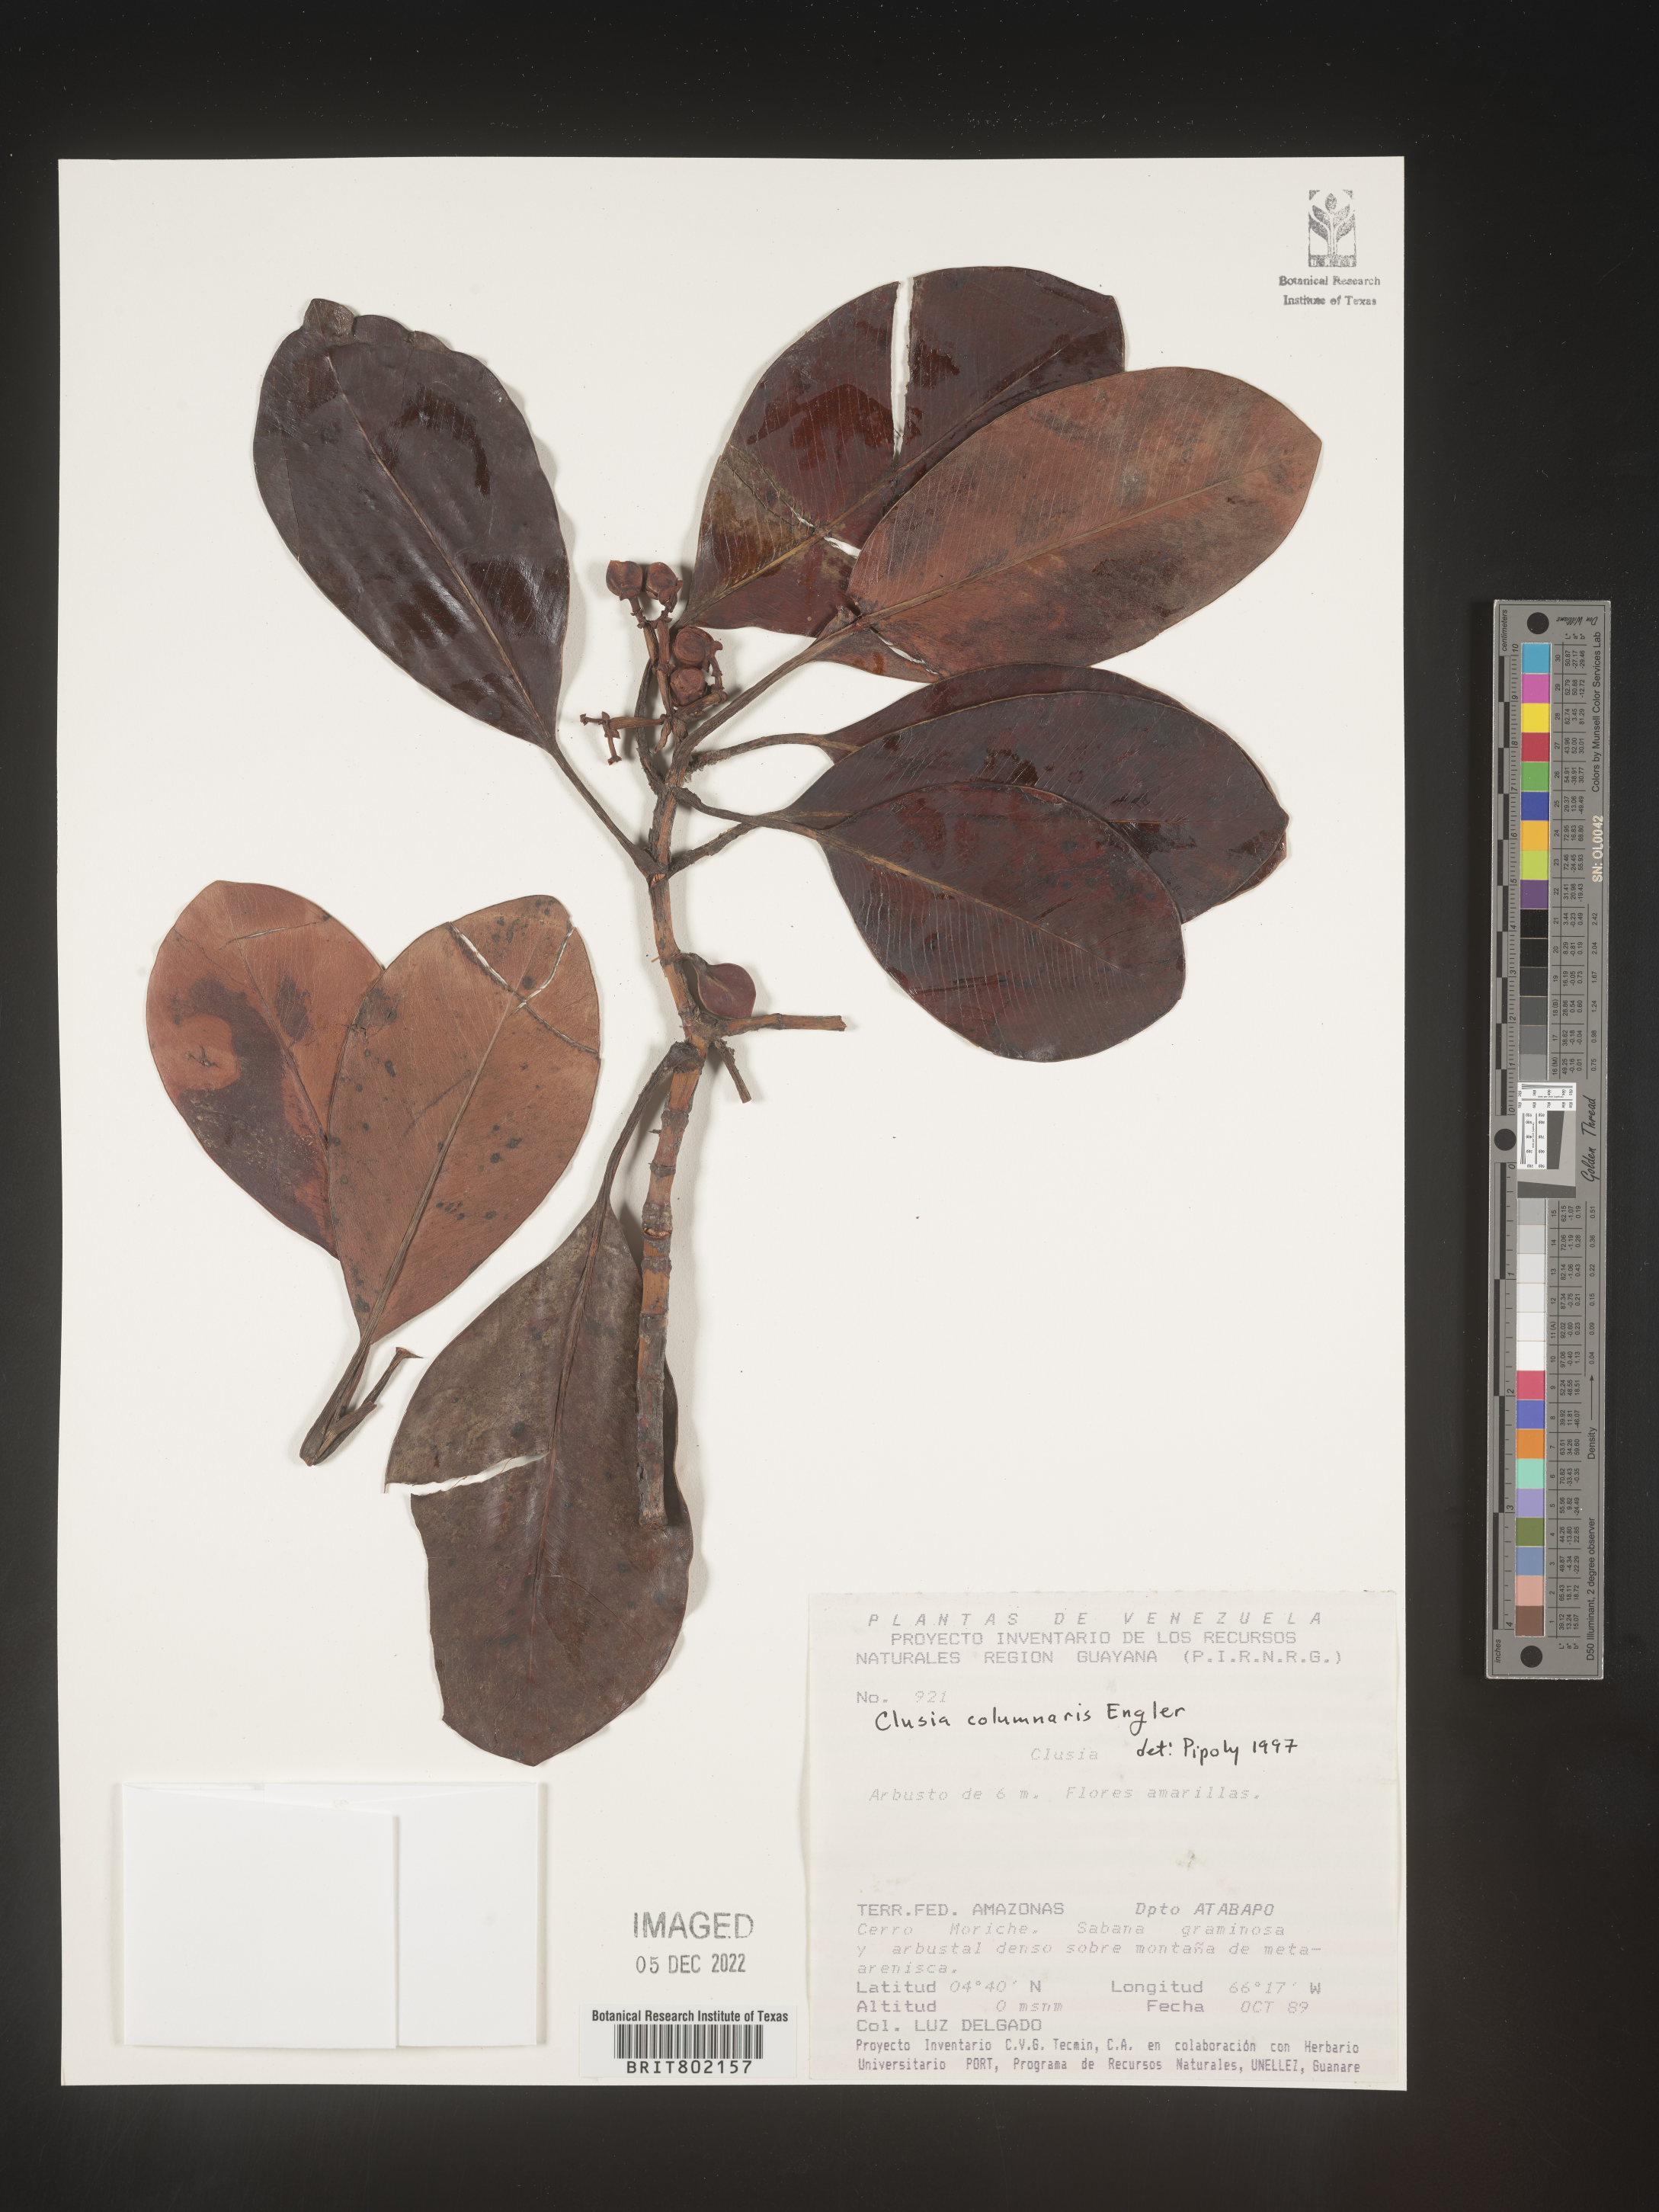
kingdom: Plantae
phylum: Tracheophyta
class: Magnoliopsida
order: Malpighiales
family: Clusiaceae
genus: Clusia
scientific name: Clusia columnaris
